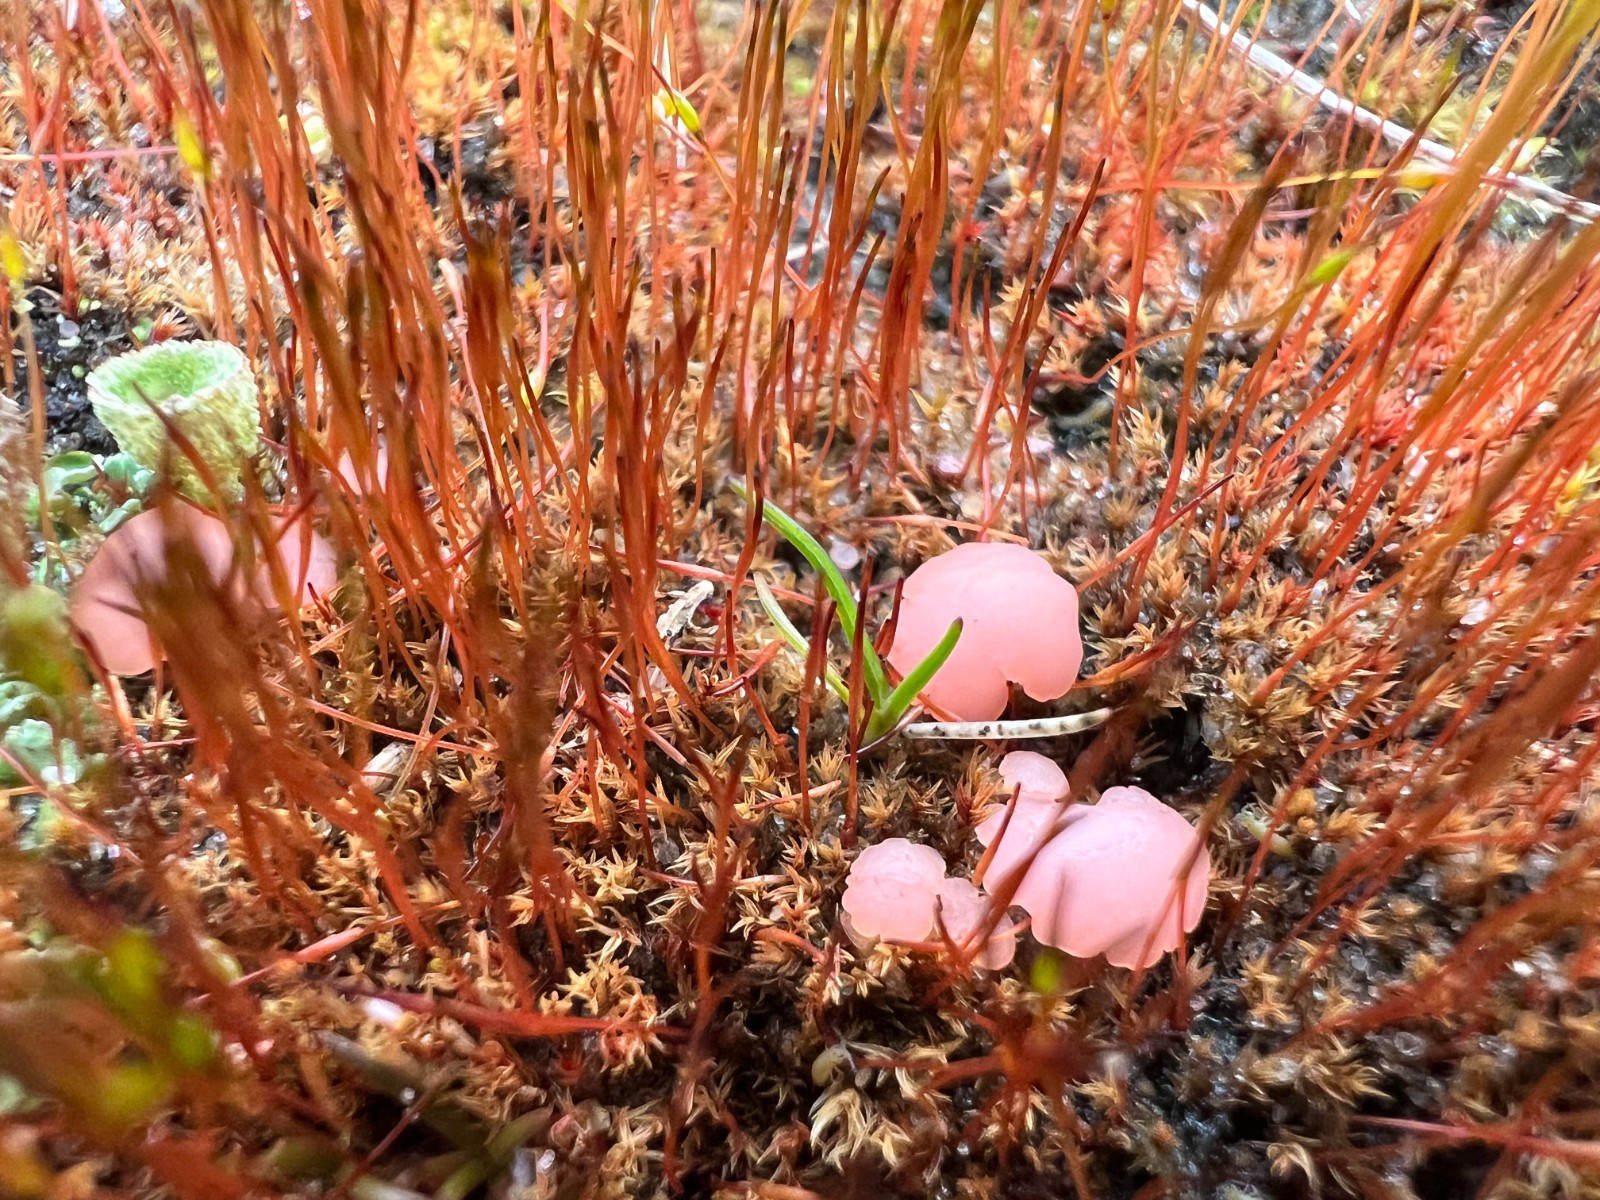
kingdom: Fungi
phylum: Ascomycota
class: Leotiomycetes
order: Helotiales
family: Hyaloscyphaceae
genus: Roseodiscus
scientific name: Roseodiscus formosus
